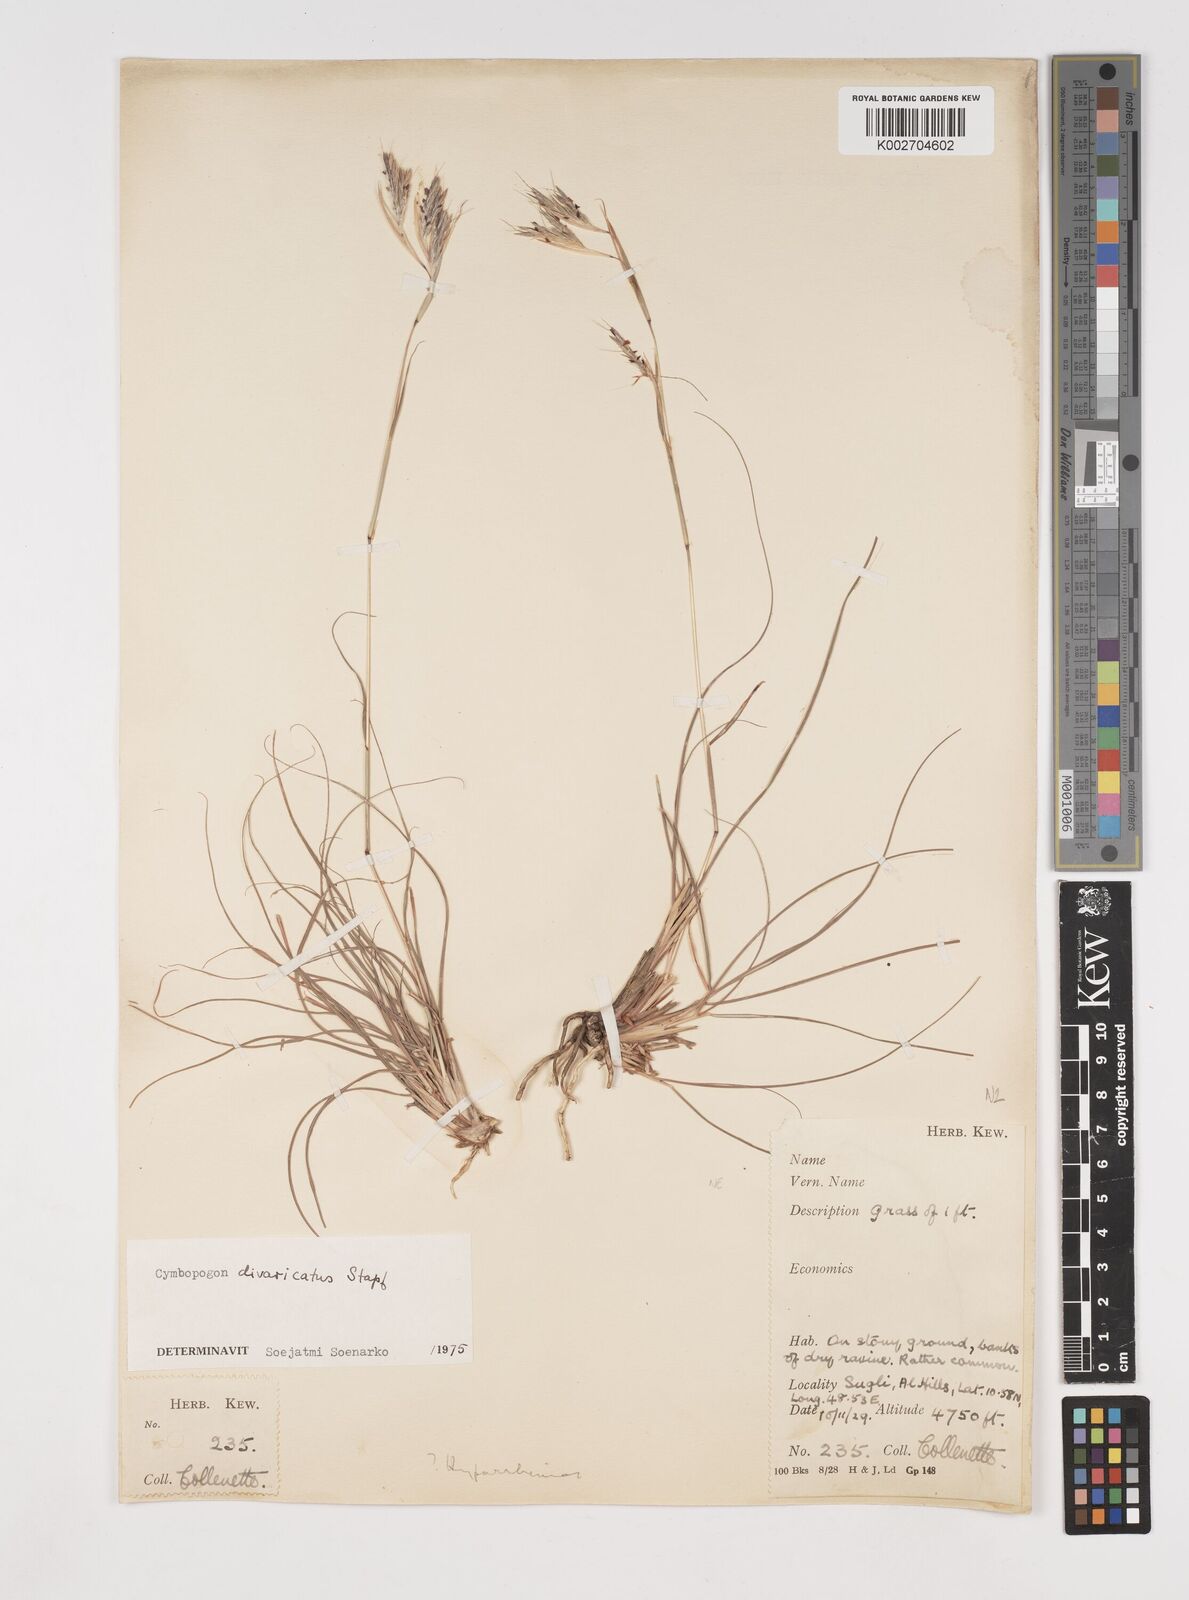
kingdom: Plantae
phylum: Tracheophyta
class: Liliopsida
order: Poales
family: Poaceae
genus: Cymbopogon
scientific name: Cymbopogon commutatus
